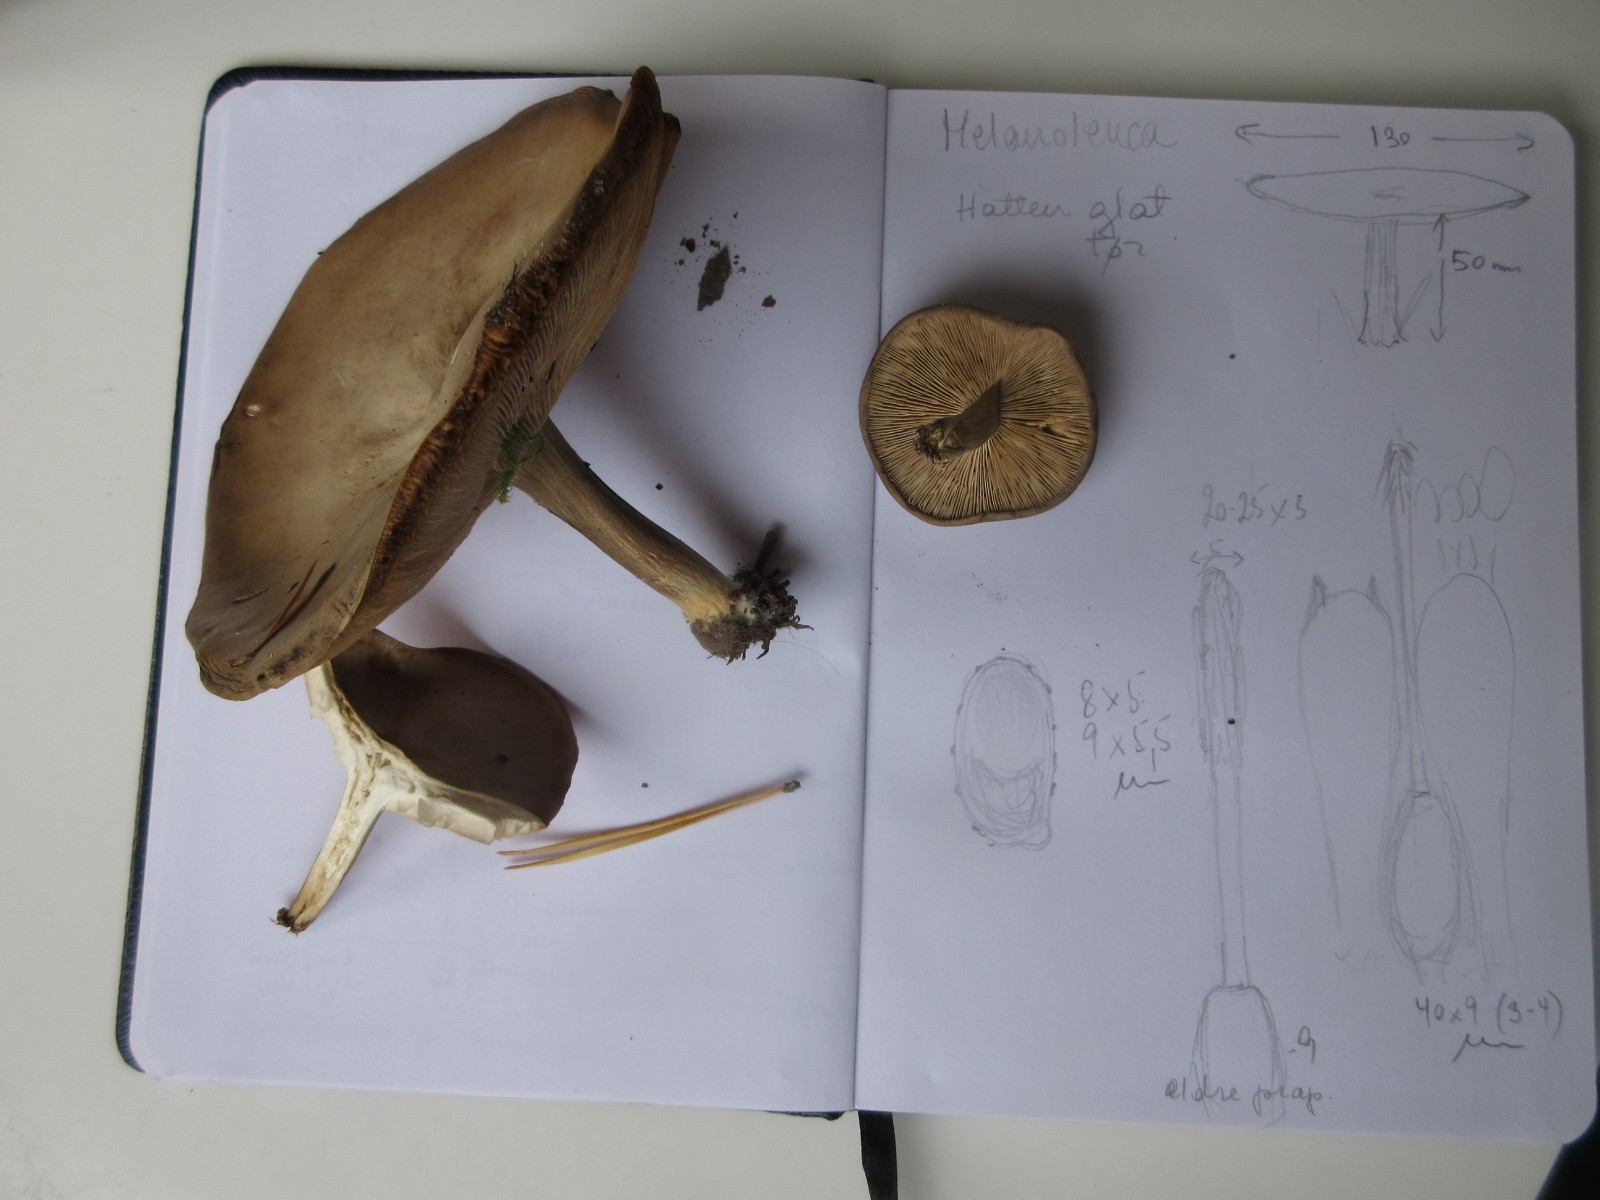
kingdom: Fungi
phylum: Basidiomycota
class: Agaricomycetes
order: Agaricales
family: Tricholomataceae
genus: Melanoleuca
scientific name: Melanoleuca grammopodia
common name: stribestokket munkehat
